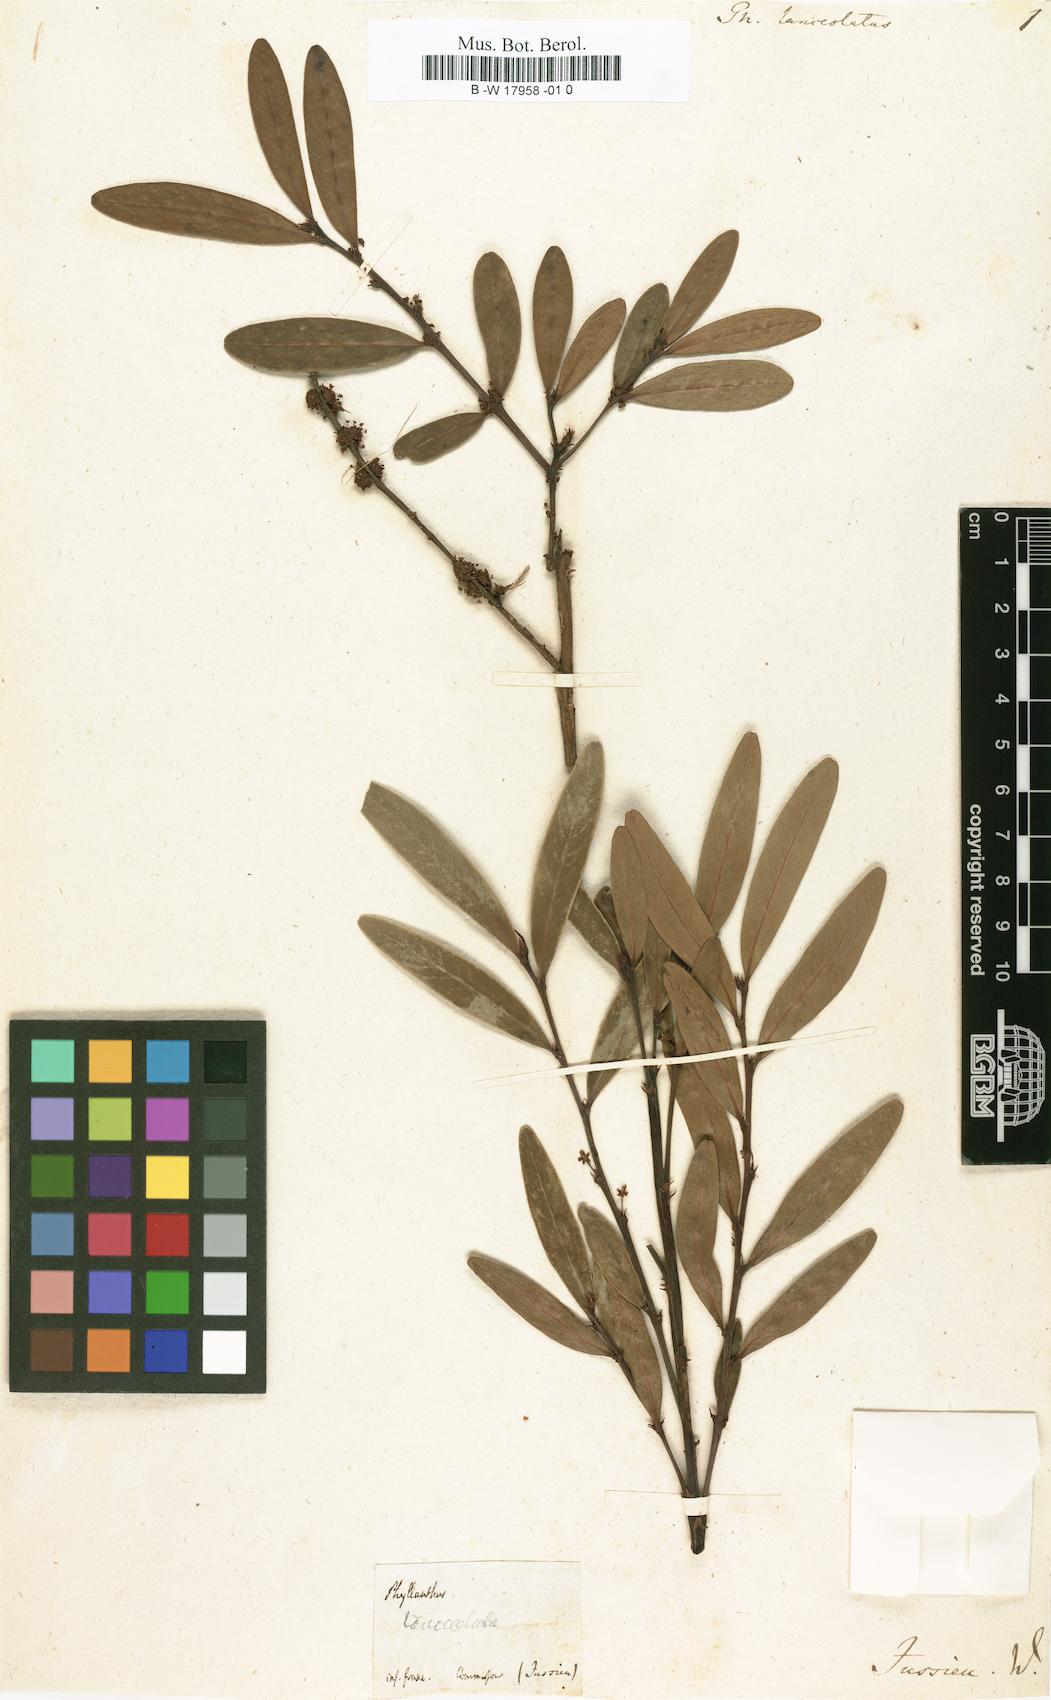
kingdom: Plantae
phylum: Tracheophyta
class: Magnoliopsida
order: Malpighiales
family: Phyllanthaceae
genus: Phyllanthus
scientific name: Phyllanthus lanceolatus
